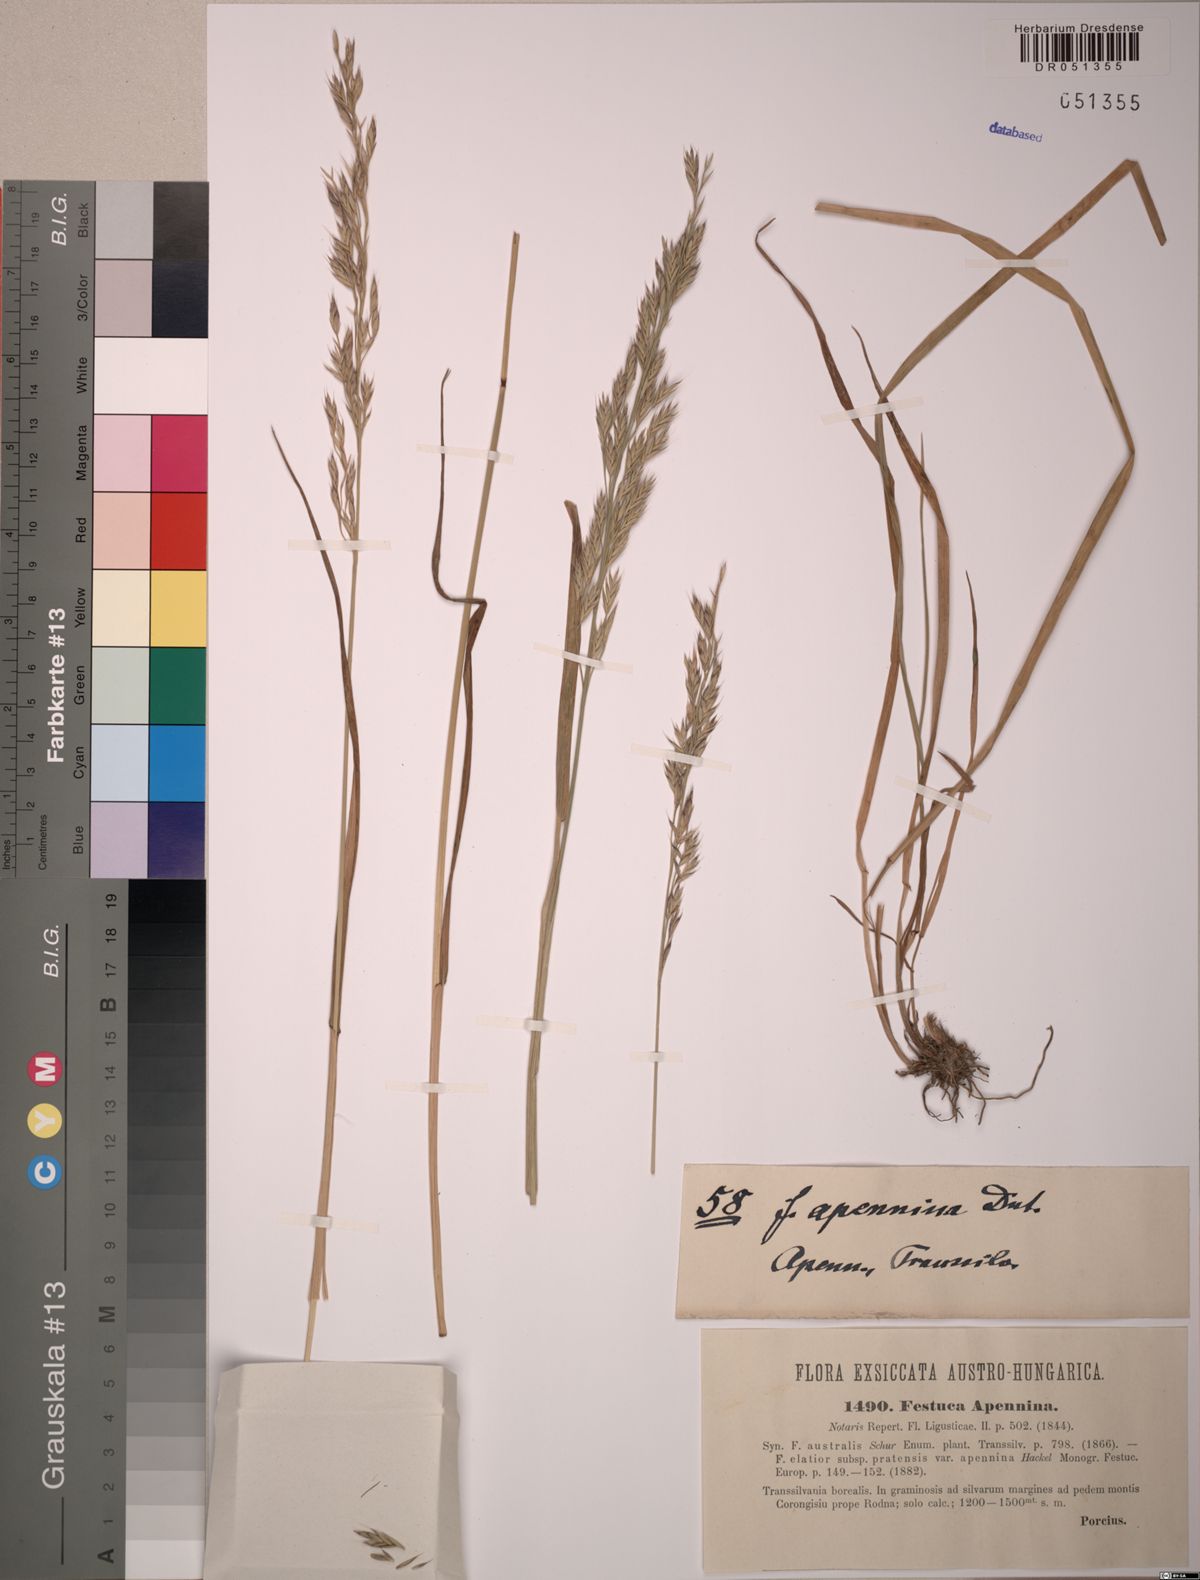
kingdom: Plantae
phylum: Tracheophyta
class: Liliopsida
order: Poales
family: Poaceae
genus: Lolium
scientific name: Lolium apenninum
